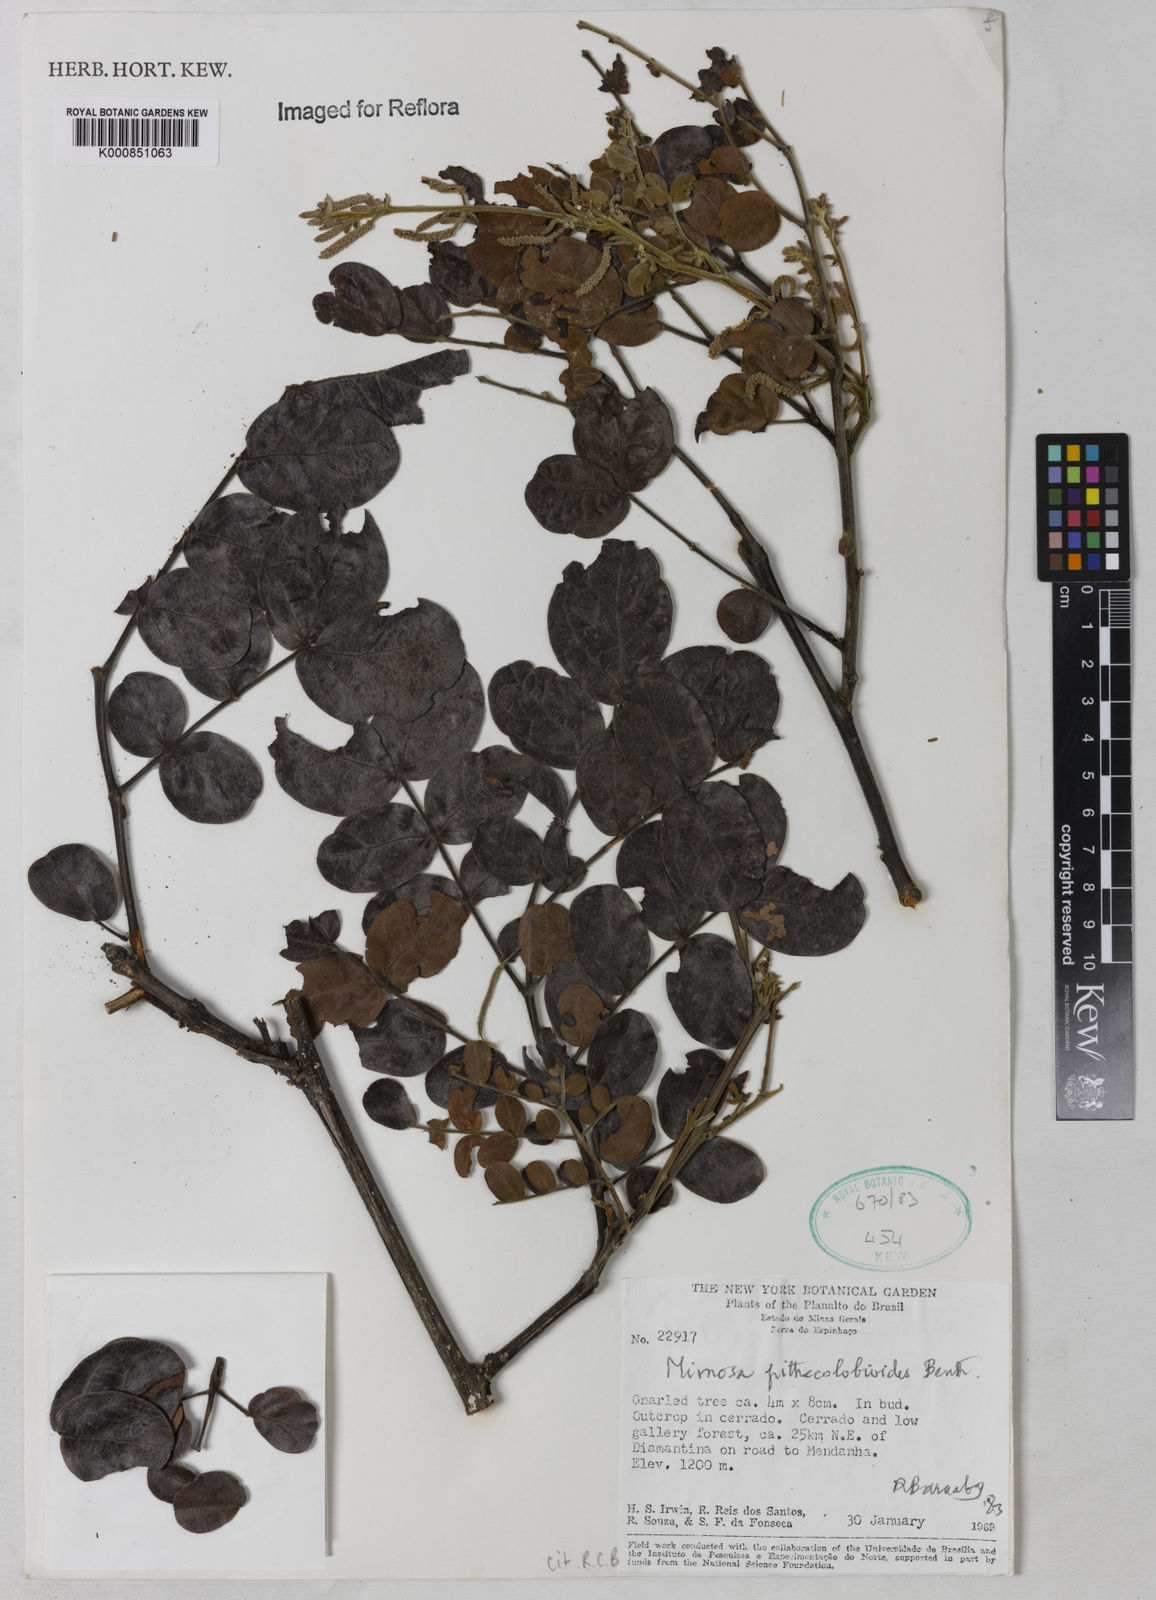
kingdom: Plantae
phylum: Tracheophyta
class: Magnoliopsida
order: Fabales
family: Fabaceae
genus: Mimosa
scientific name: Mimosa pithecolobioides
